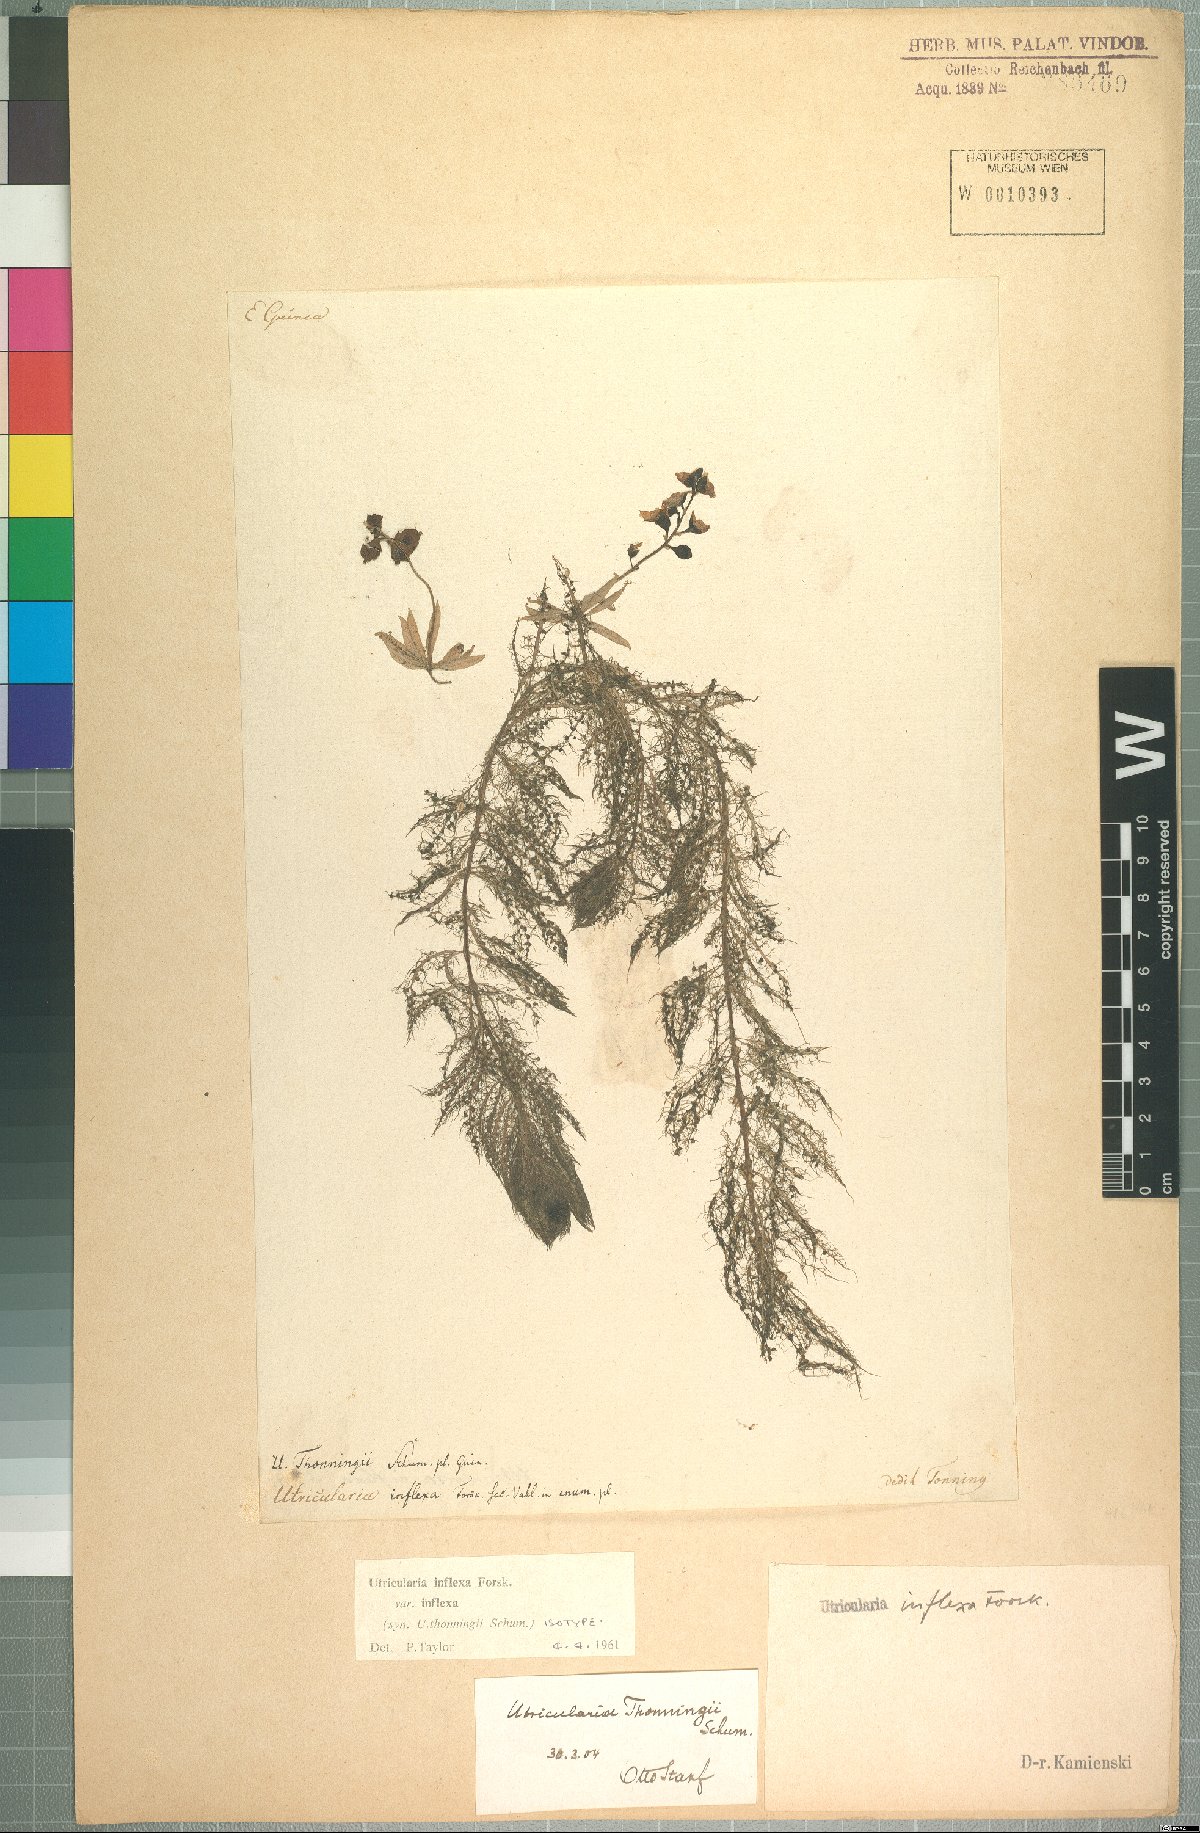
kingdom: Plantae
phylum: Tracheophyta
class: Magnoliopsida
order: Lamiales
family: Lentibulariaceae
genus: Utricularia
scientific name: Utricularia inflexa
